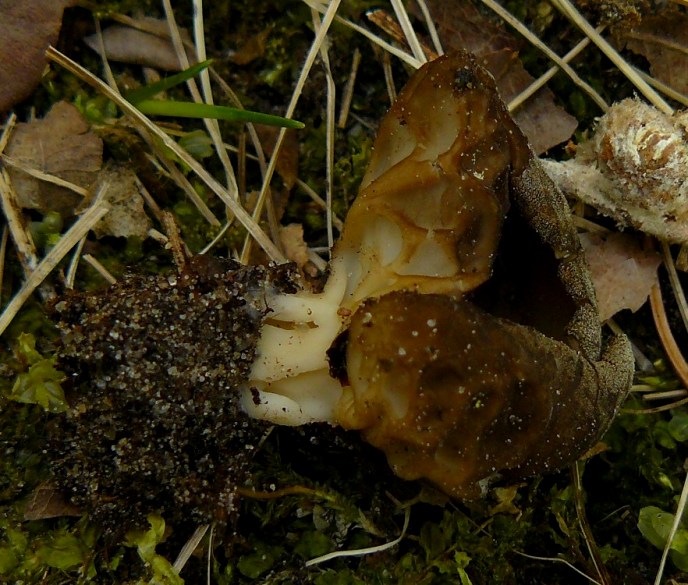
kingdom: Fungi
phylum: Ascomycota
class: Pezizomycetes
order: Pezizales
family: Helvellaceae
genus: Helvella
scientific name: Helvella acetabulum
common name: pokal-foldhat
